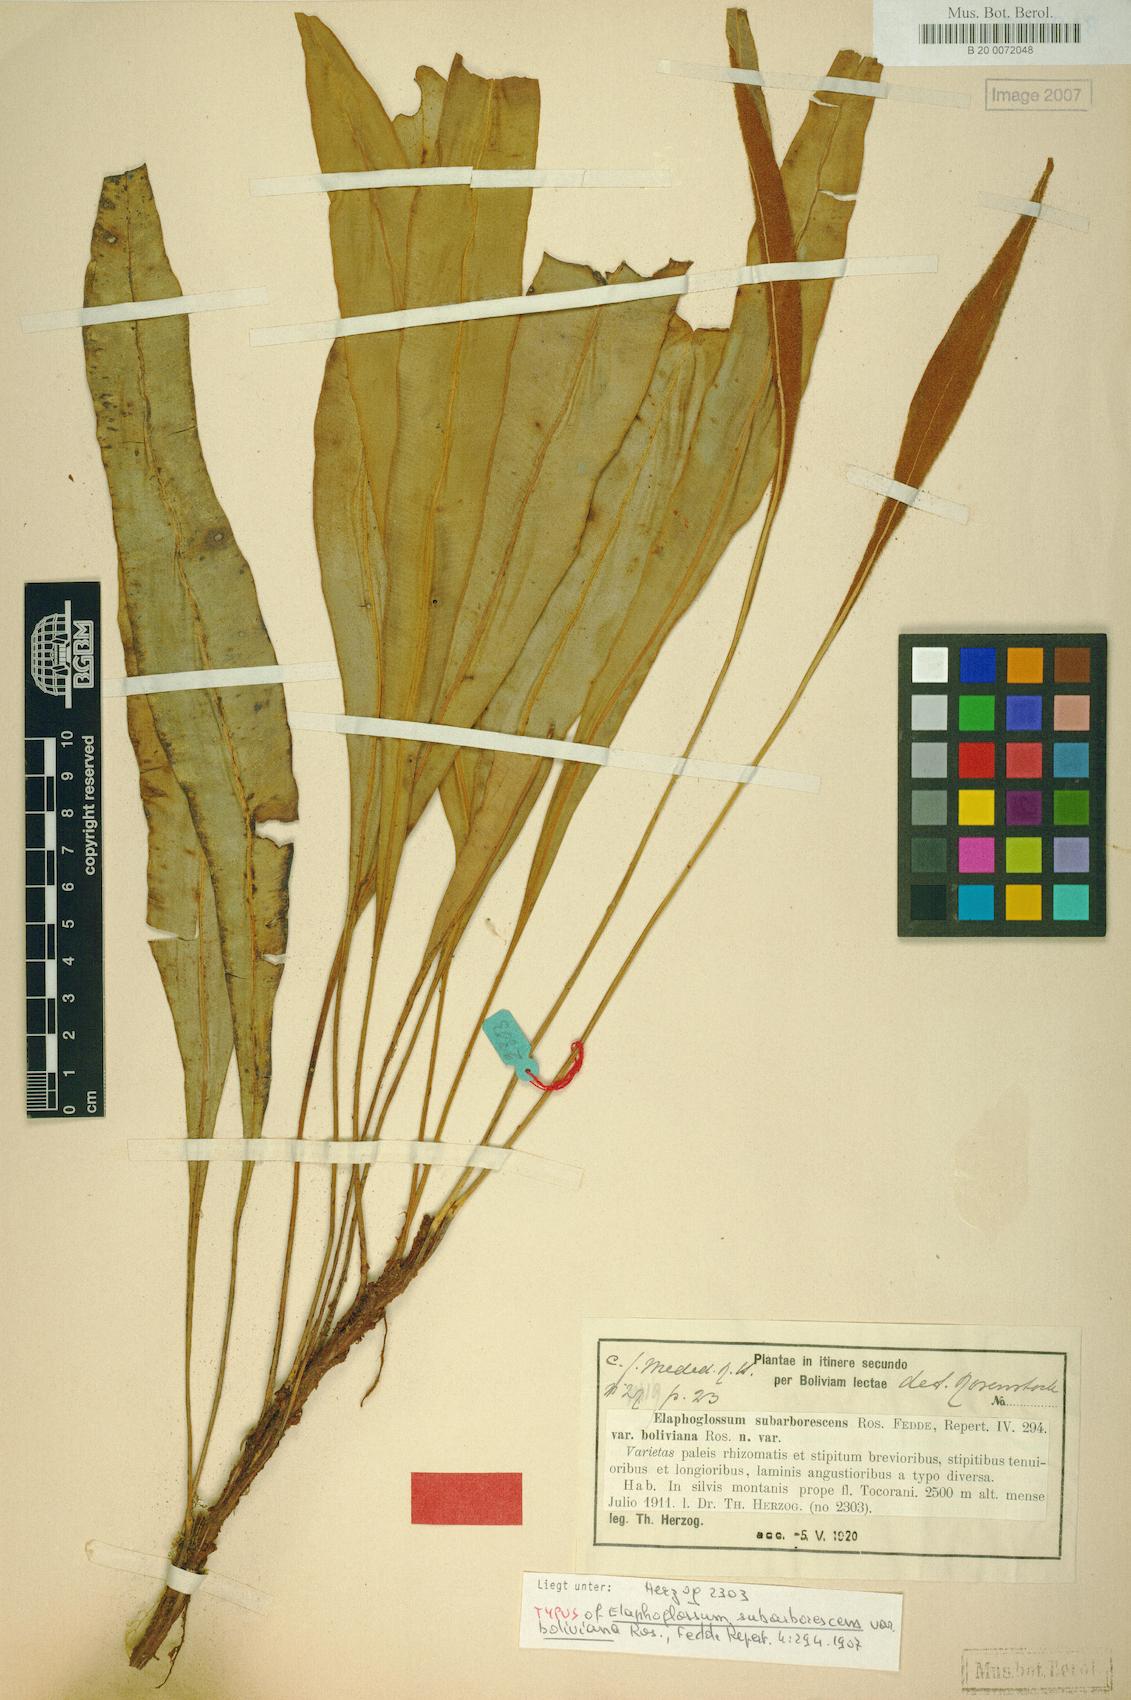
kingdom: Plantae
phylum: Tracheophyta
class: Polypodiopsida
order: Polypodiales
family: Dryopteridaceae
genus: Elaphoglossum
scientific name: Elaphoglossum glaucescens
